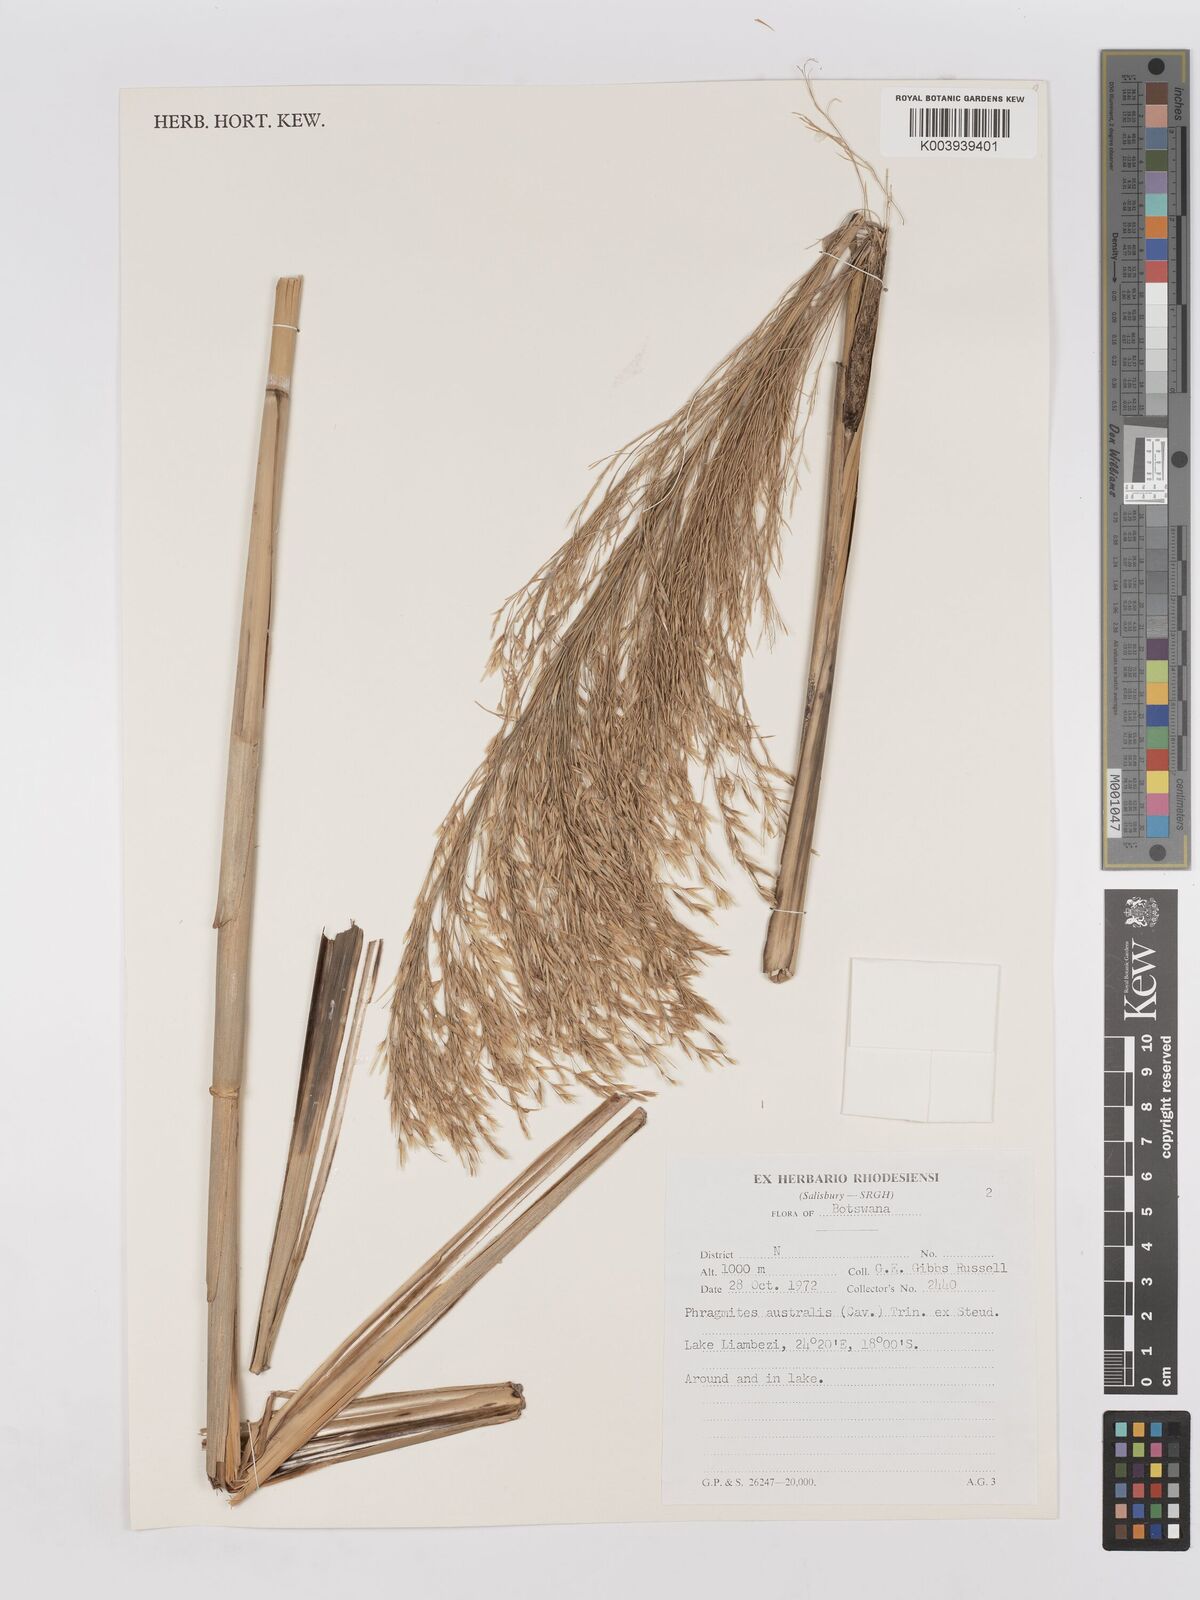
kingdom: Plantae
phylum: Tracheophyta
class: Liliopsida
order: Poales
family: Poaceae
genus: Phragmites
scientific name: Phragmites australis
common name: Common reed
